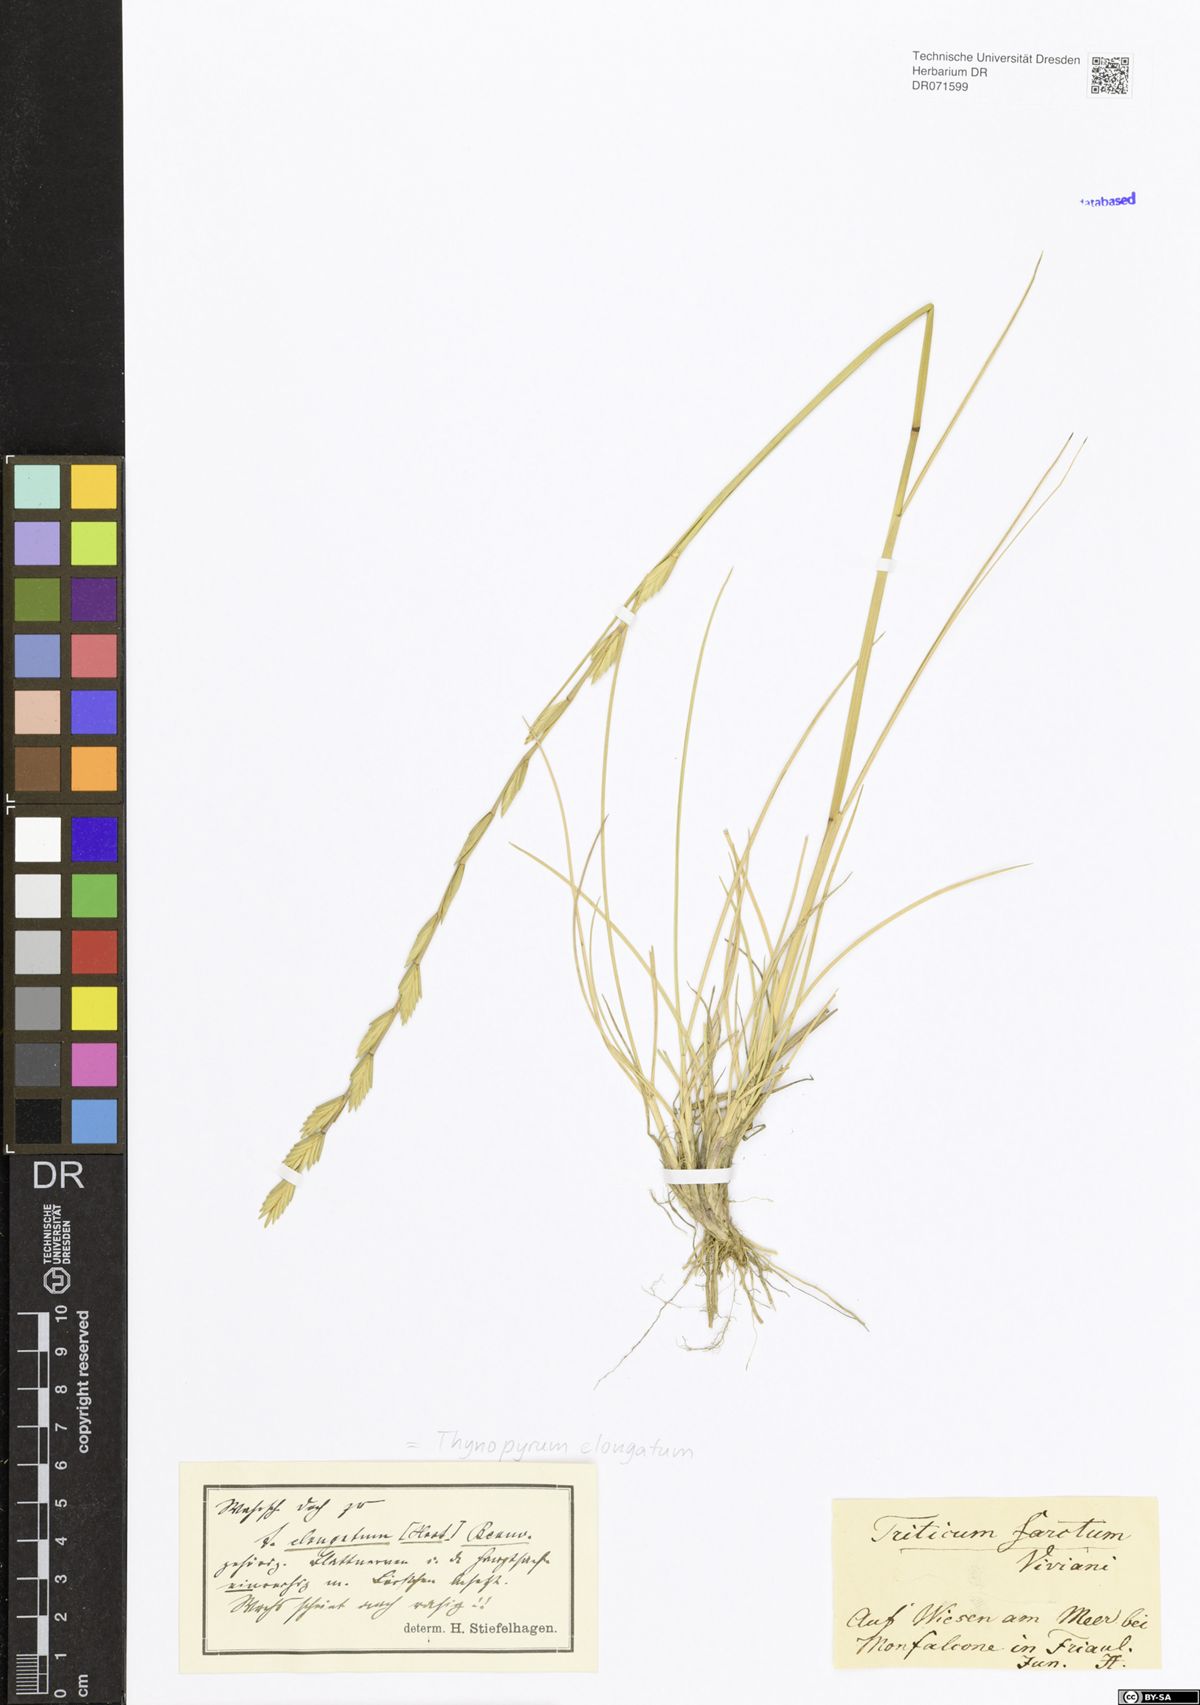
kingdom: Plantae
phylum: Tracheophyta
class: Liliopsida
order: Poales
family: Poaceae
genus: Thinopyrum
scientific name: Thinopyrum elongatum
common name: Tall wheatgrass
